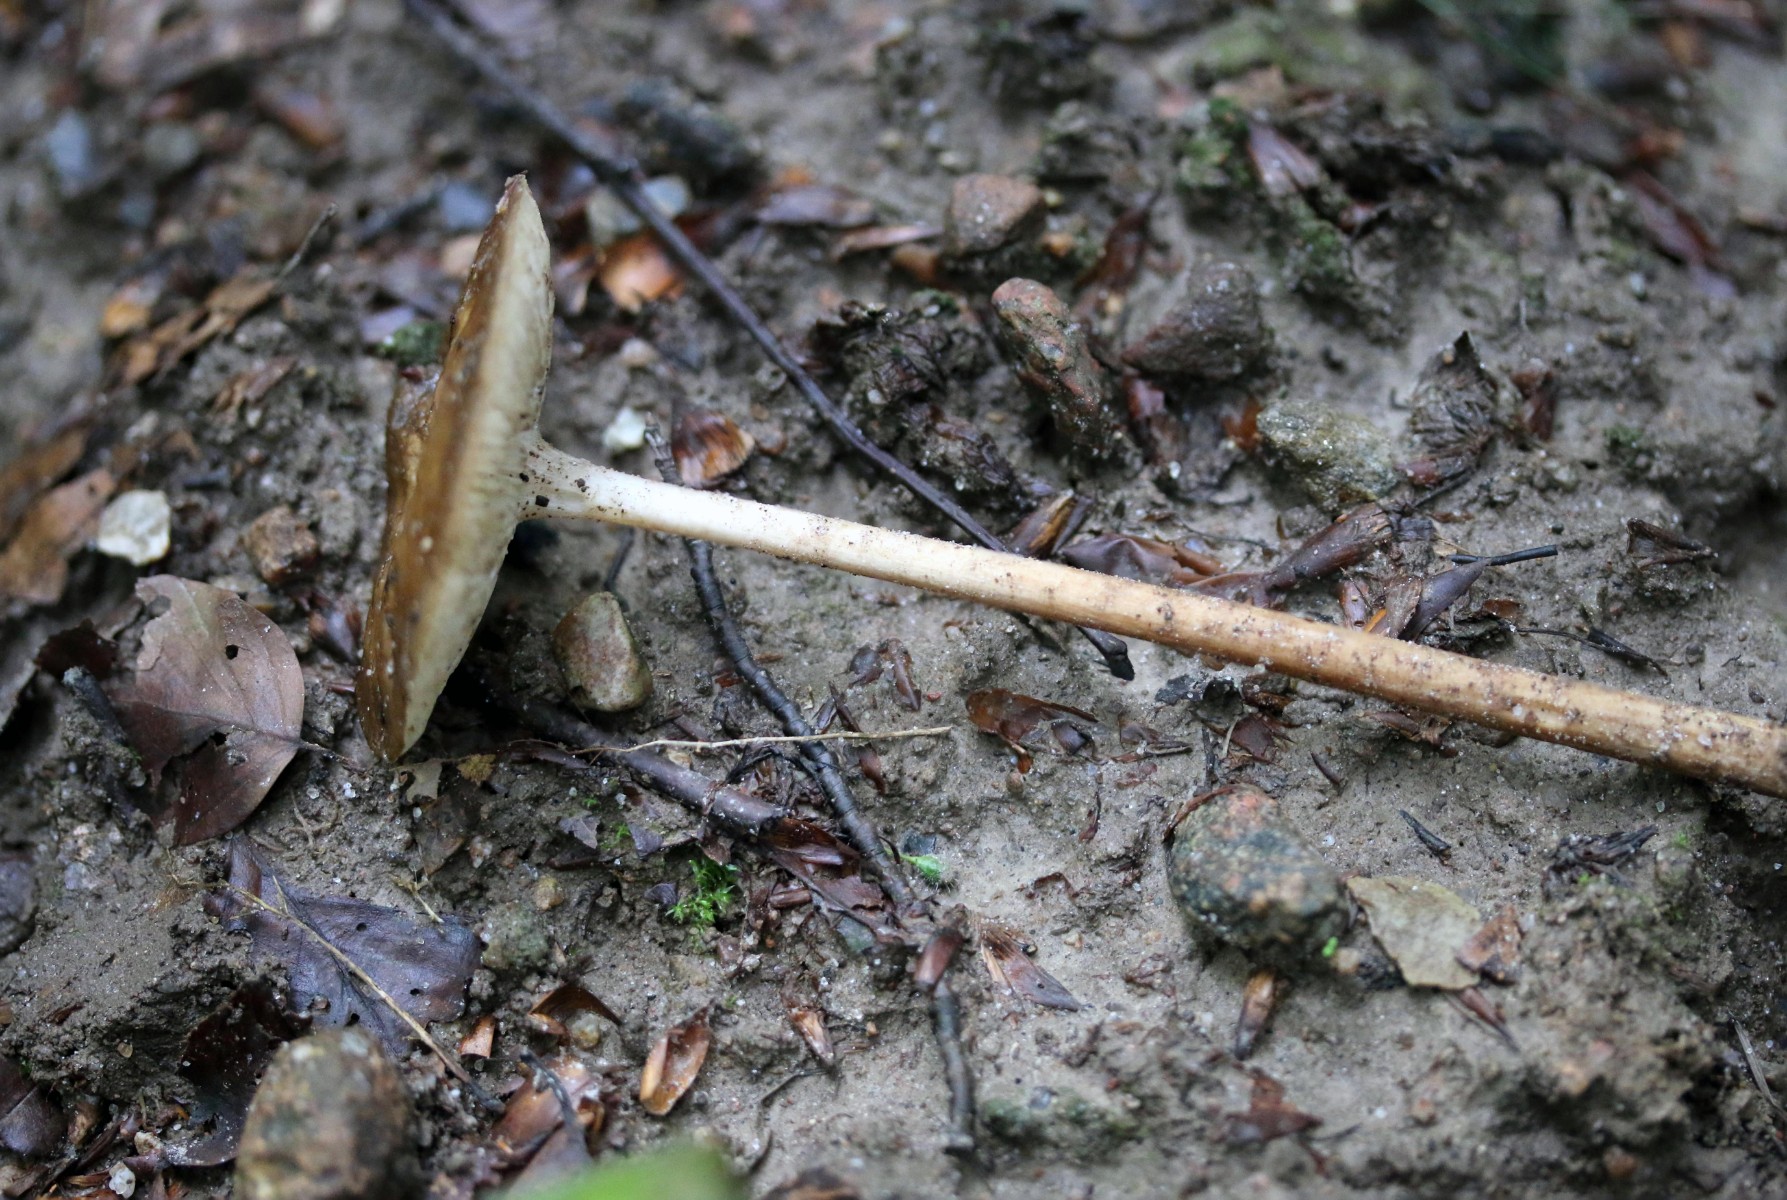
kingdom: Fungi
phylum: Basidiomycota
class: Agaricomycetes
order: Agaricales
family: Physalacriaceae
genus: Hymenopellis
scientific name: Hymenopellis radicata
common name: almindelig pælerodshat
